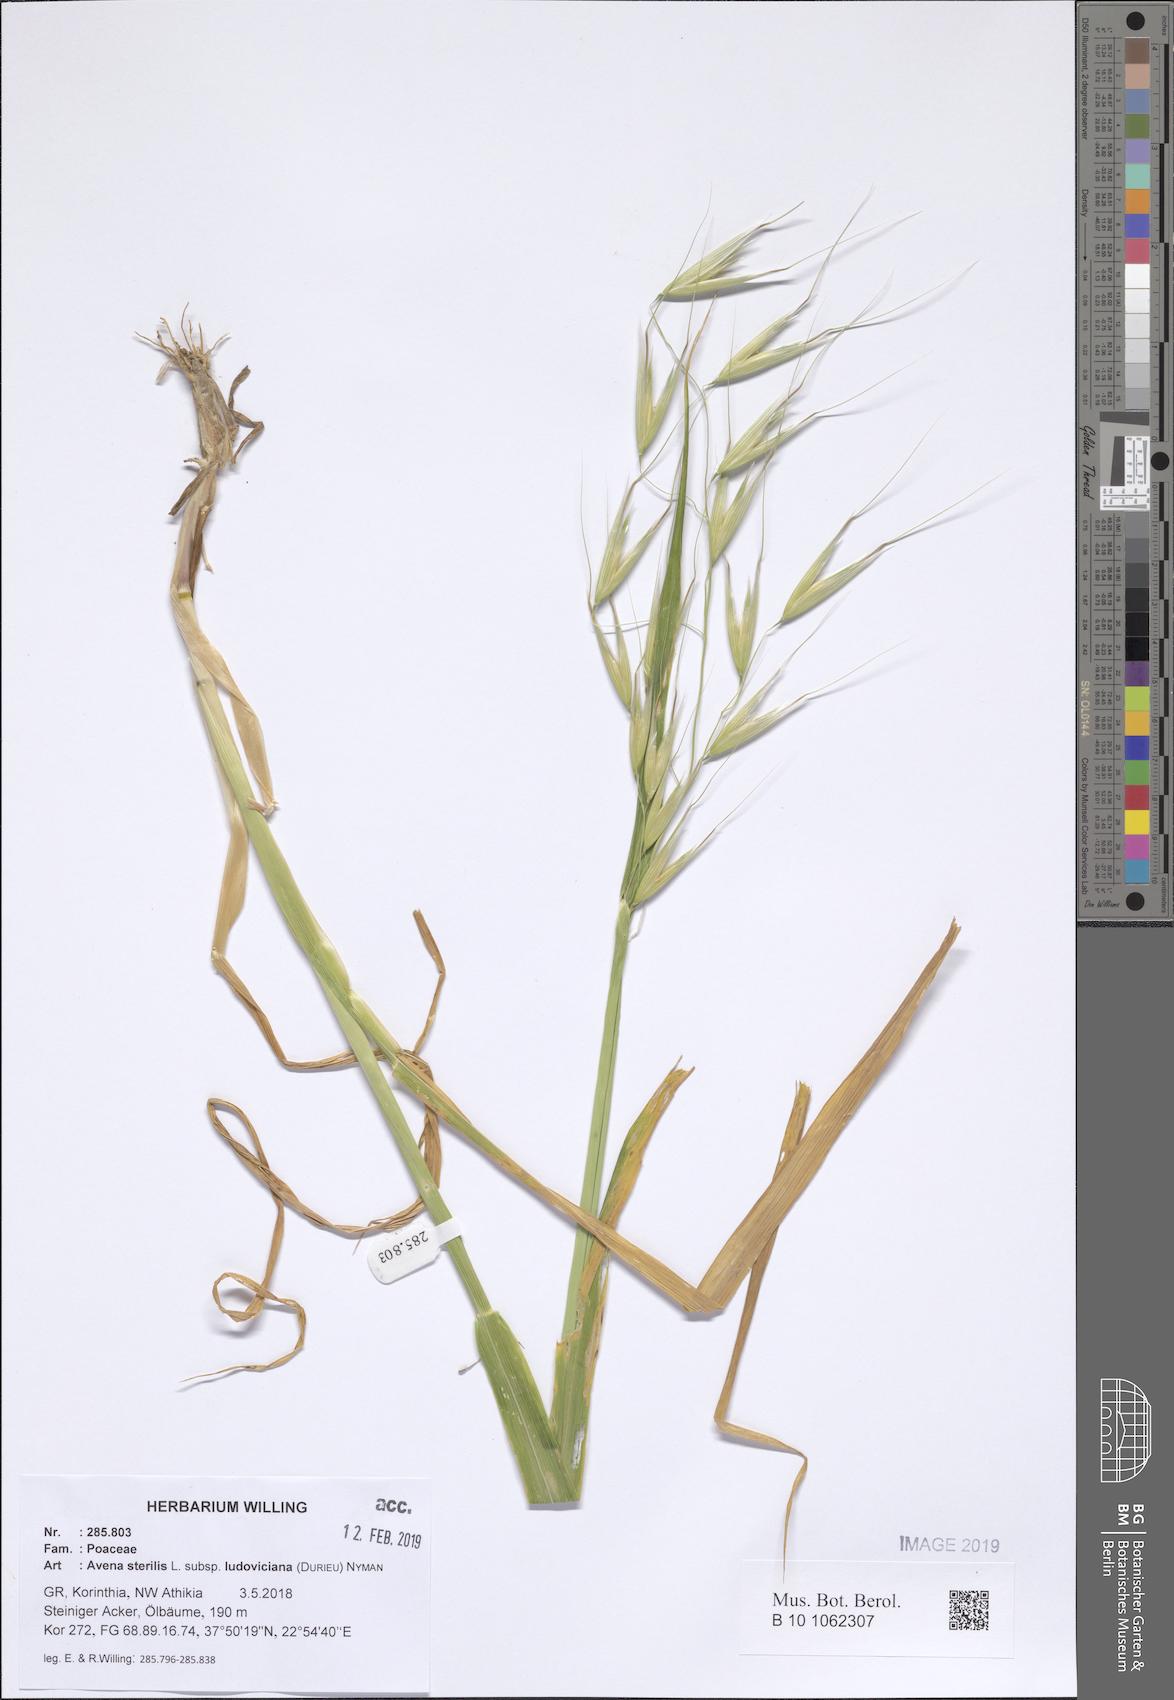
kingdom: Plantae
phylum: Tracheophyta
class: Liliopsida
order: Poales
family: Poaceae
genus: Avena
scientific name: Avena sterilis
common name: Animated oat
